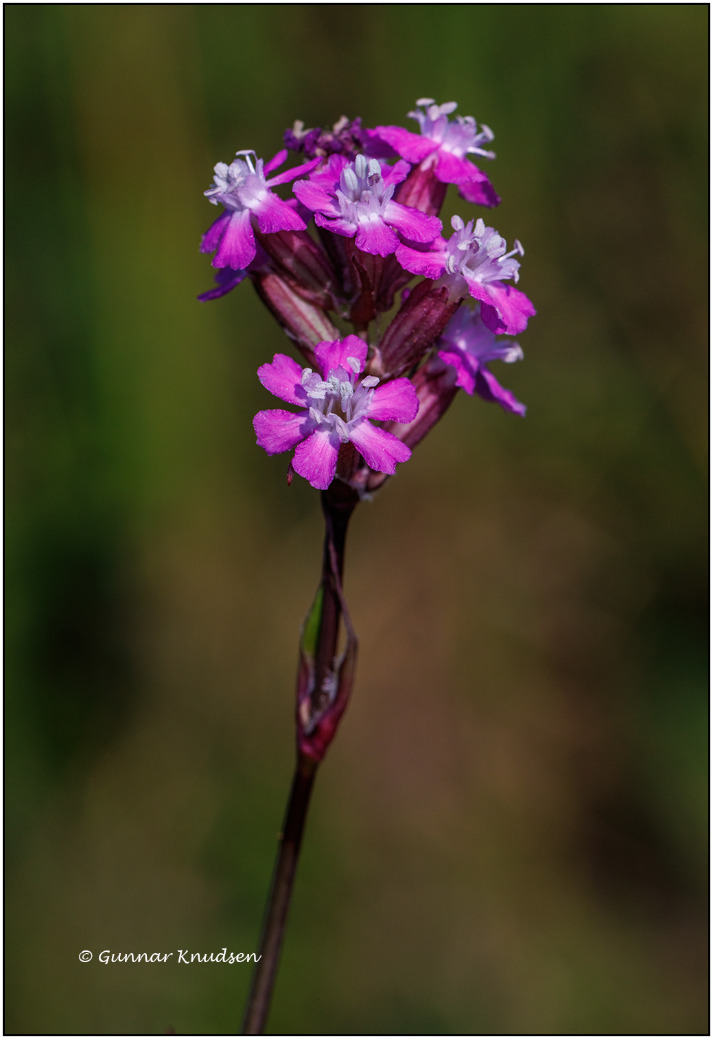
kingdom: Plantae
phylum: Tracheophyta
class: Magnoliopsida
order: Caryophyllales
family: Caryophyllaceae
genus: Viscaria
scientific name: Viscaria vulgaris
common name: Tjærenellike
